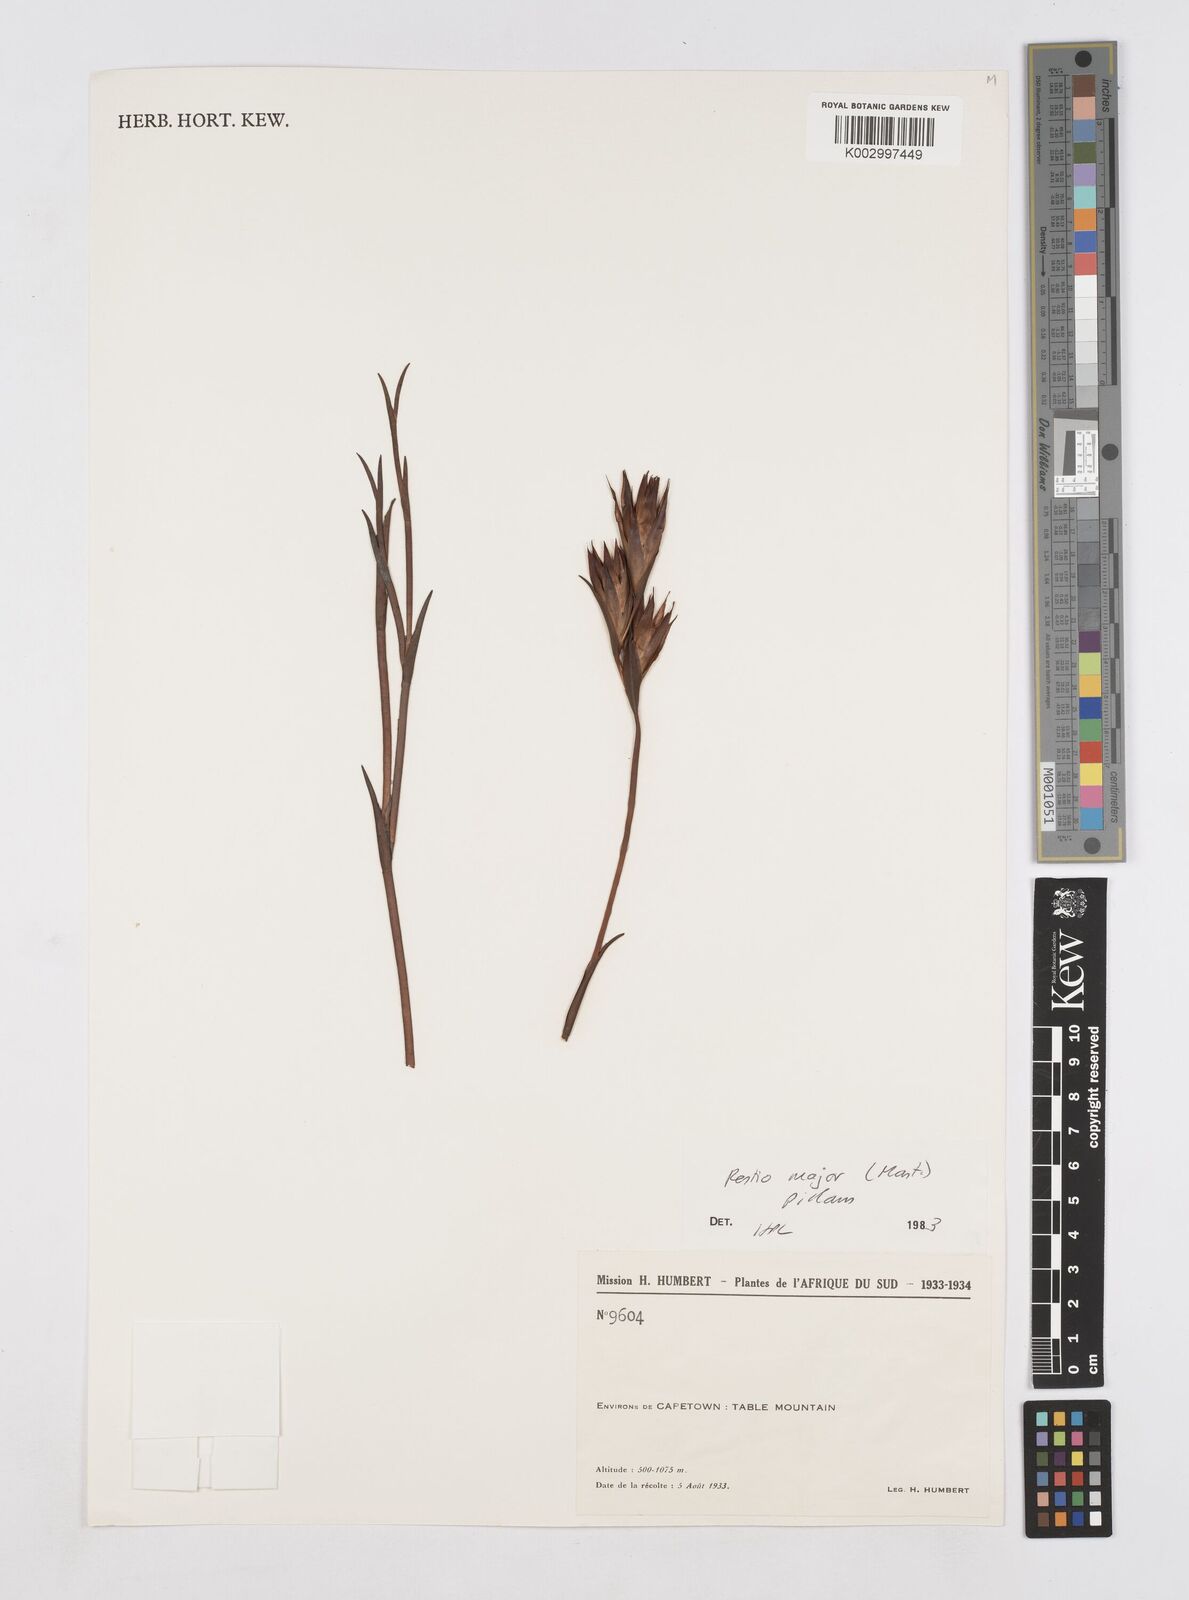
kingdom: Plantae
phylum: Tracheophyta
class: Liliopsida
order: Poales
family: Restionaceae
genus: Platycaulos
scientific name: Platycaulos major
